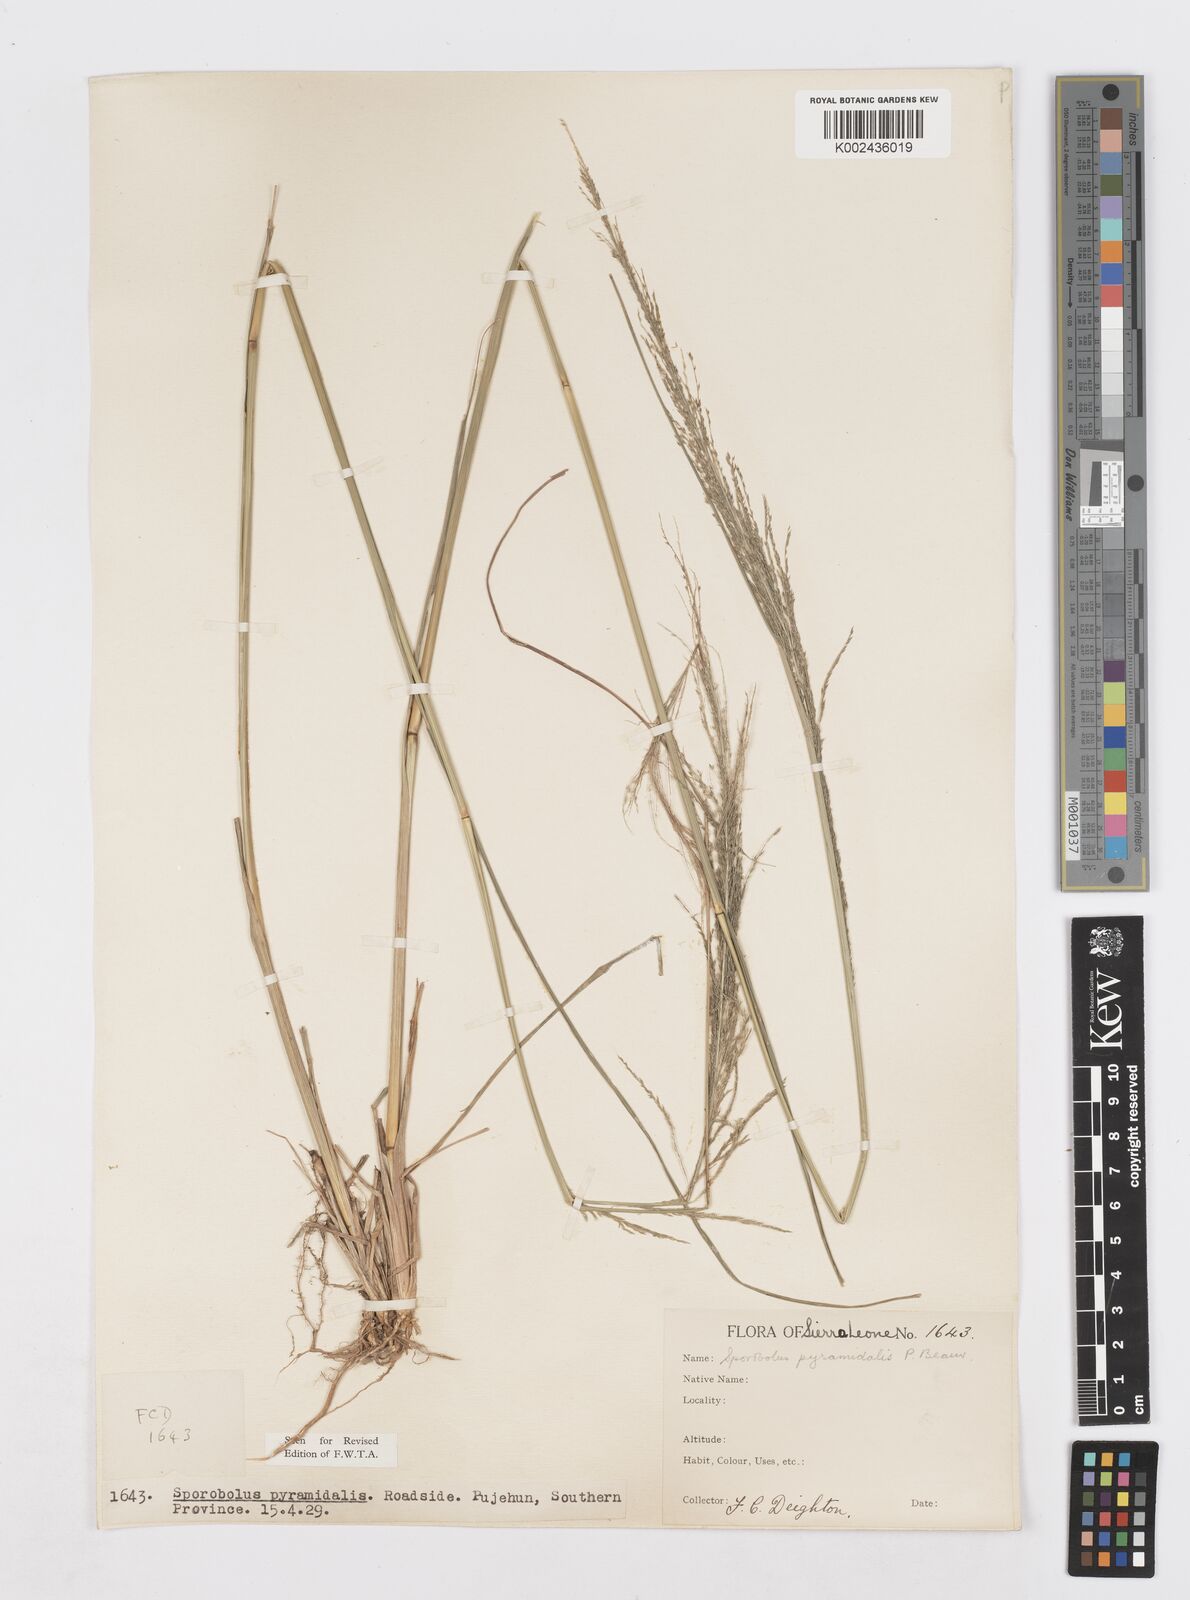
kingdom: Plantae
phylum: Tracheophyta
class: Liliopsida
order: Poales
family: Poaceae
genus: Sporobolus
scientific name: Sporobolus pyramidalis
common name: West indian dropseed
